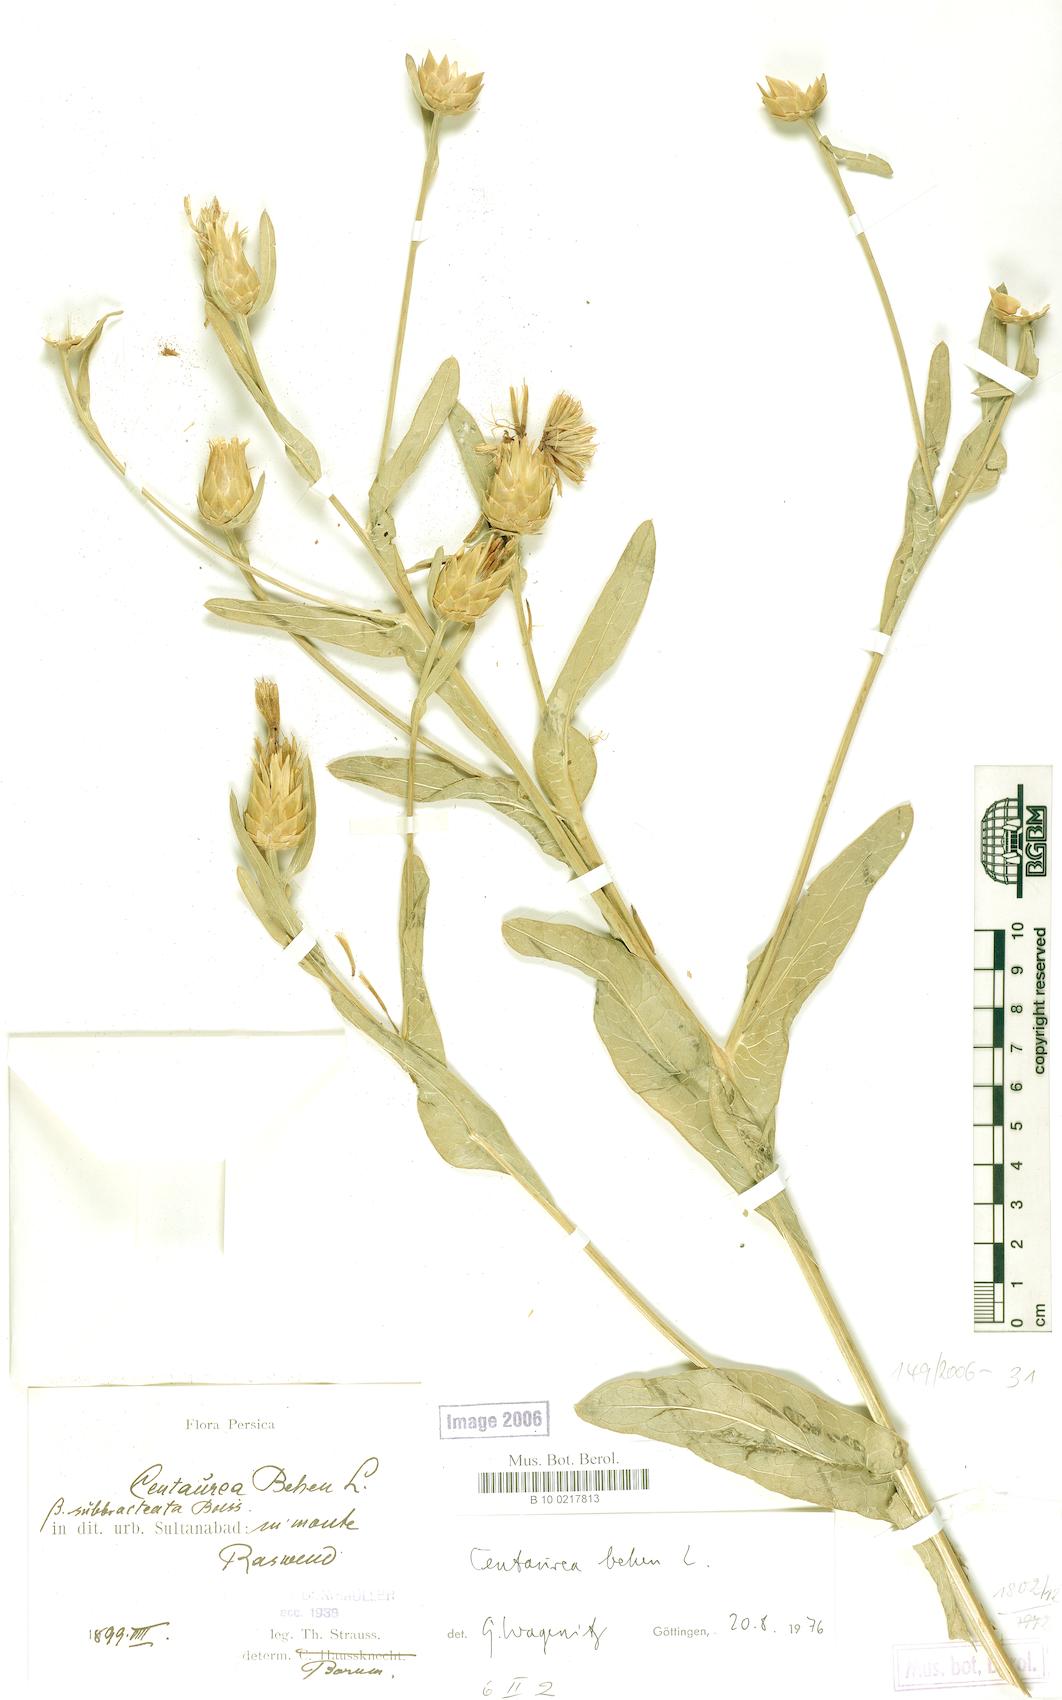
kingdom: Plantae
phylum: Tracheophyta
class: Magnoliopsida
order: Asterales
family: Asteraceae
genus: Centaurea
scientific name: Centaurea behen
